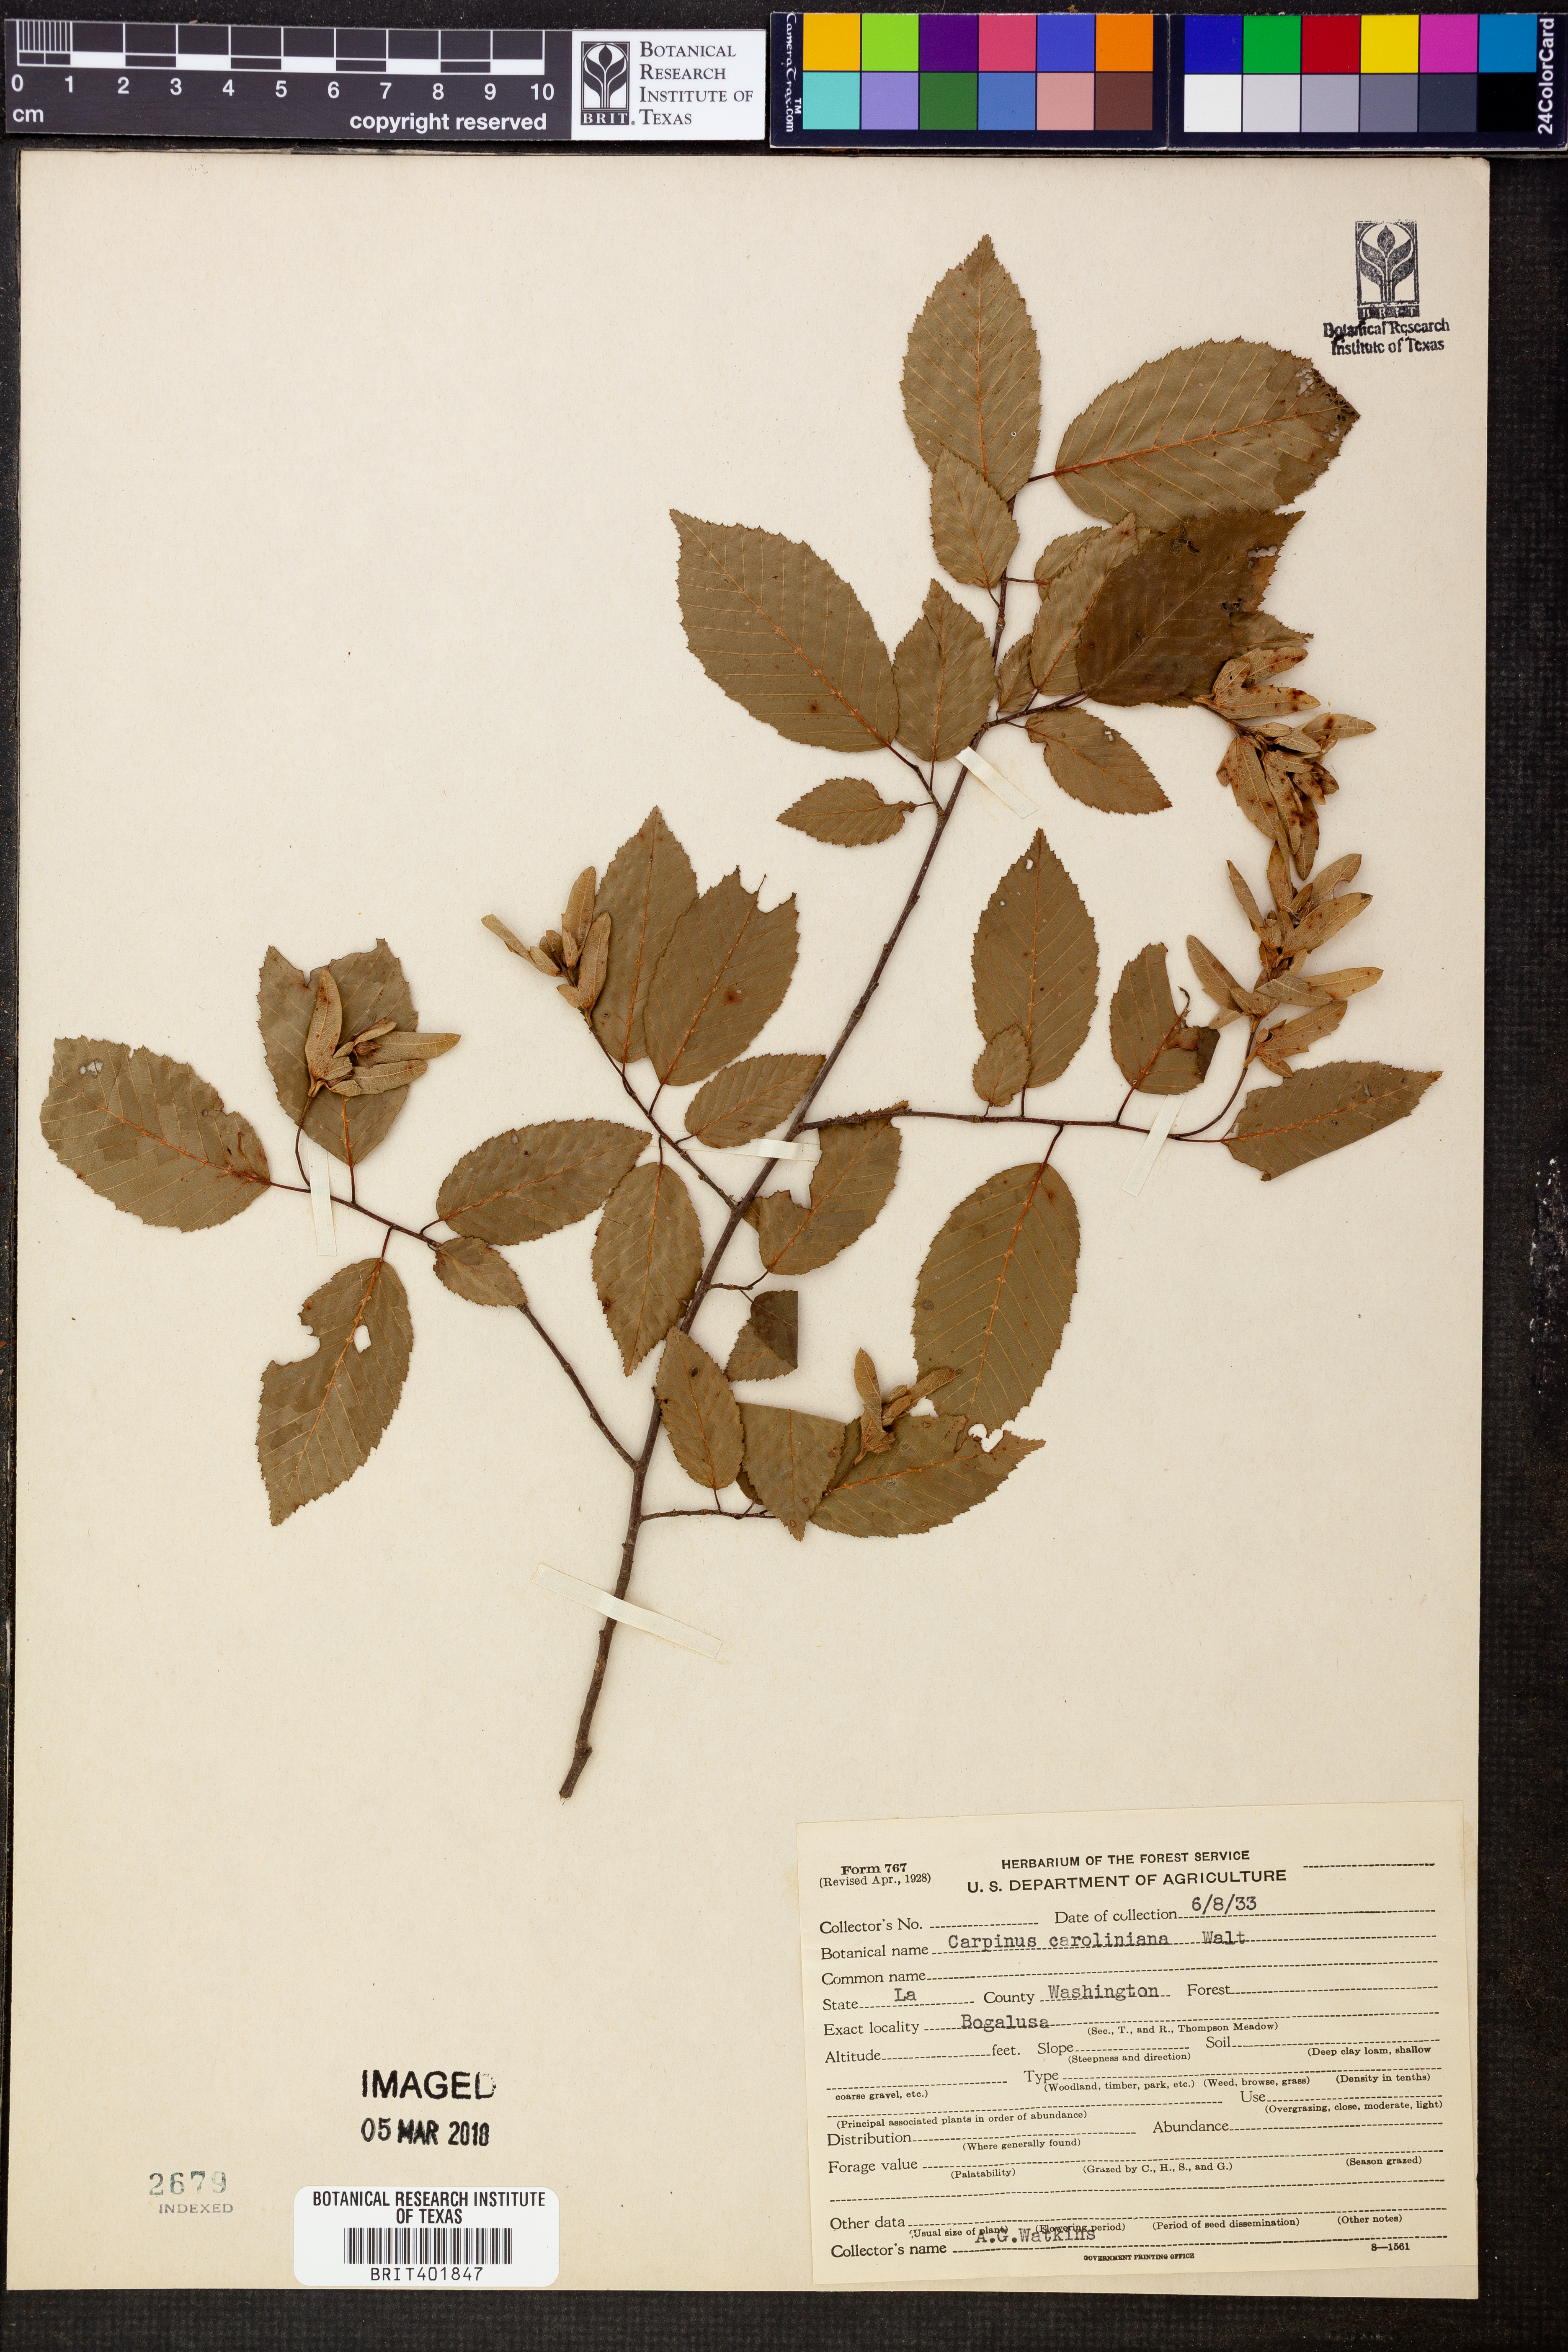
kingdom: Plantae
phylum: Tracheophyta
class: Magnoliopsida
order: Fagales
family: Betulaceae
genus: Carpinus
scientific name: Carpinus caroliniana
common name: American hornbeam
